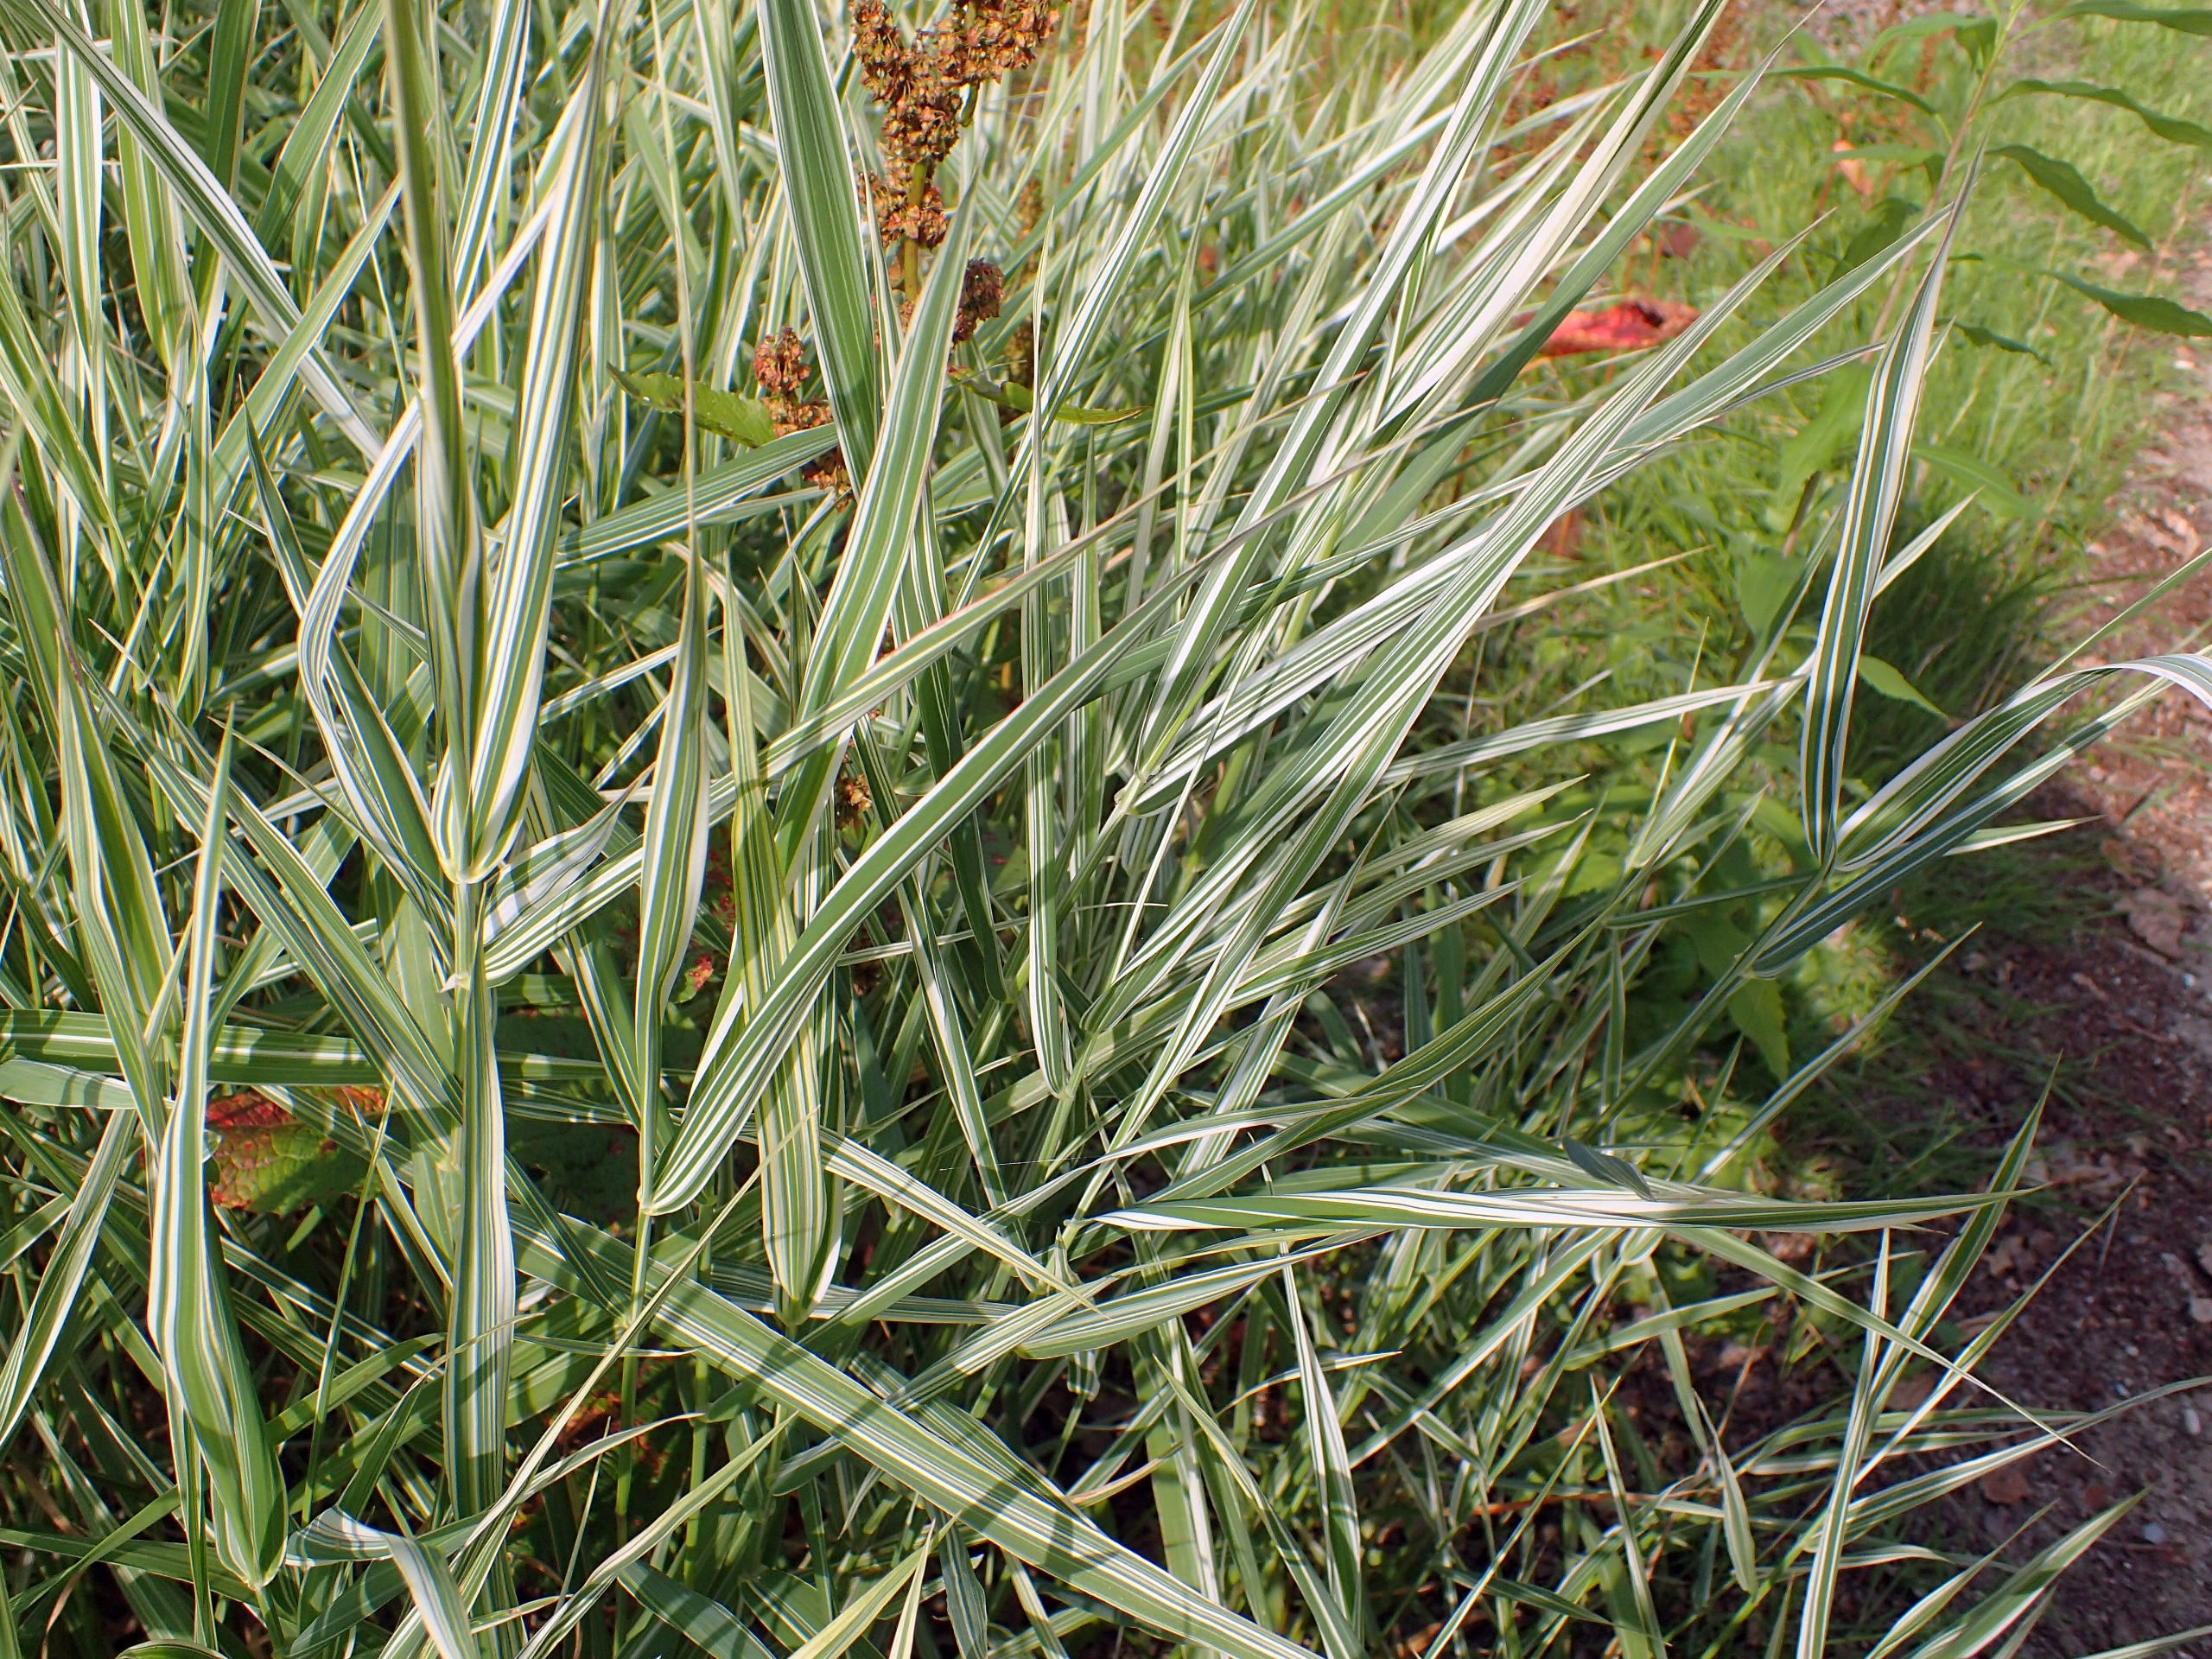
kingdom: Plantae
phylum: Tracheophyta
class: Liliopsida
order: Poales
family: Poaceae
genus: Phalaris
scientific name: Phalaris arundinacea
